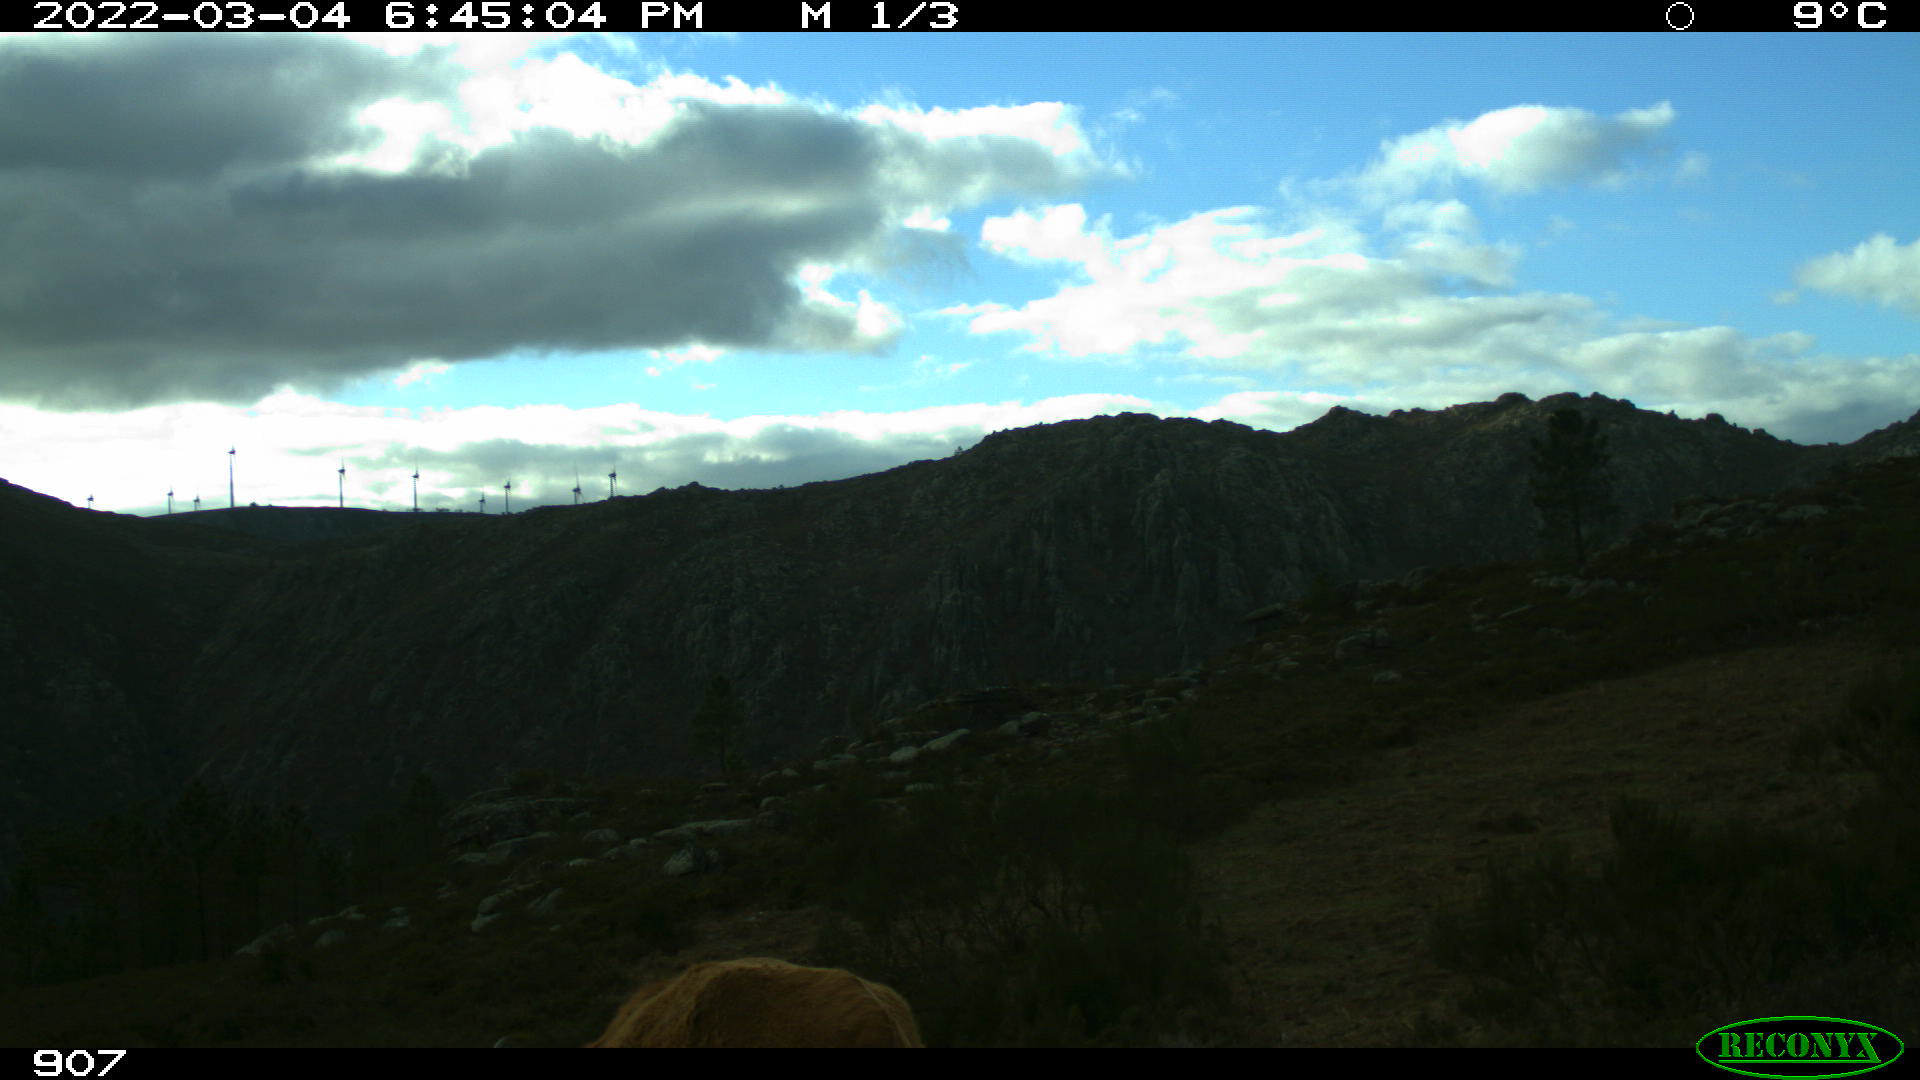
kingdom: Animalia
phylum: Chordata
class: Mammalia
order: Artiodactyla
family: Bovidae
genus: Bos
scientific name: Bos taurus
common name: Domesticated cattle
